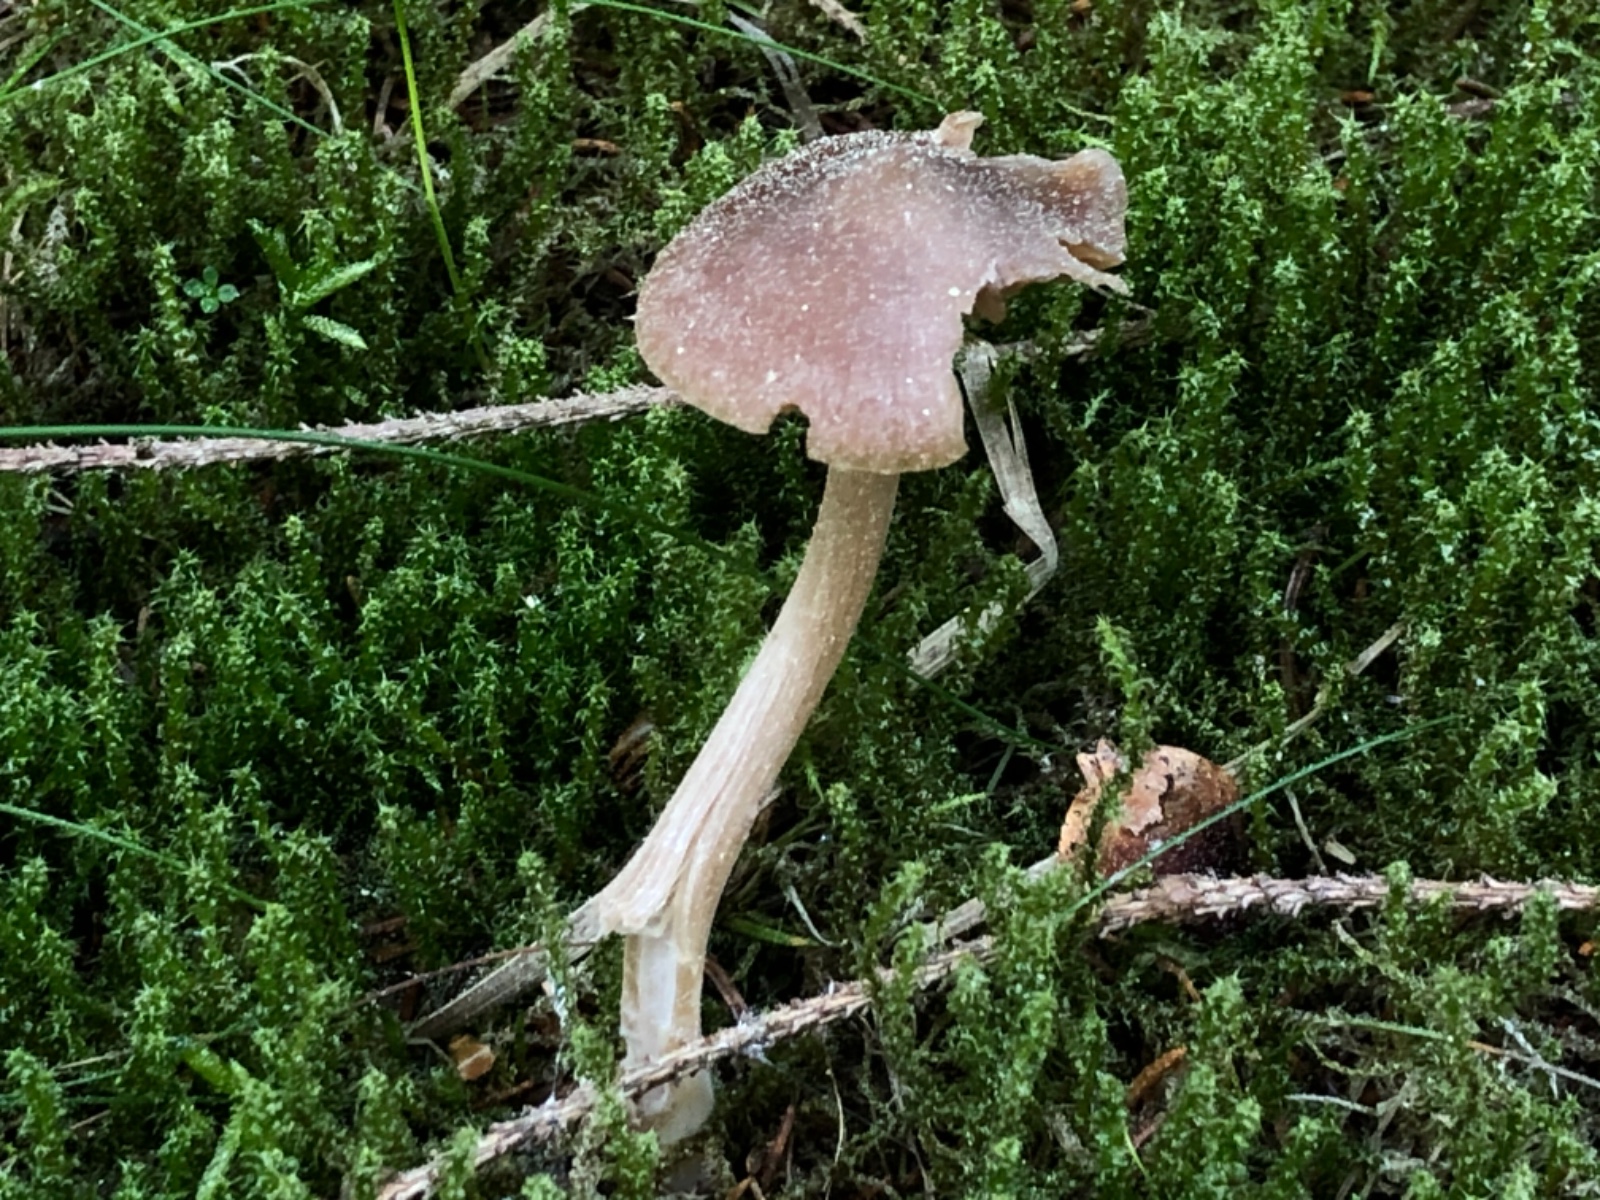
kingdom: Fungi
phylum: Basidiomycota
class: Agaricomycetes
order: Agaricales
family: Entolomataceae
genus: Entoloma
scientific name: Entoloma cuneatum
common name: dunstokket rødblad
